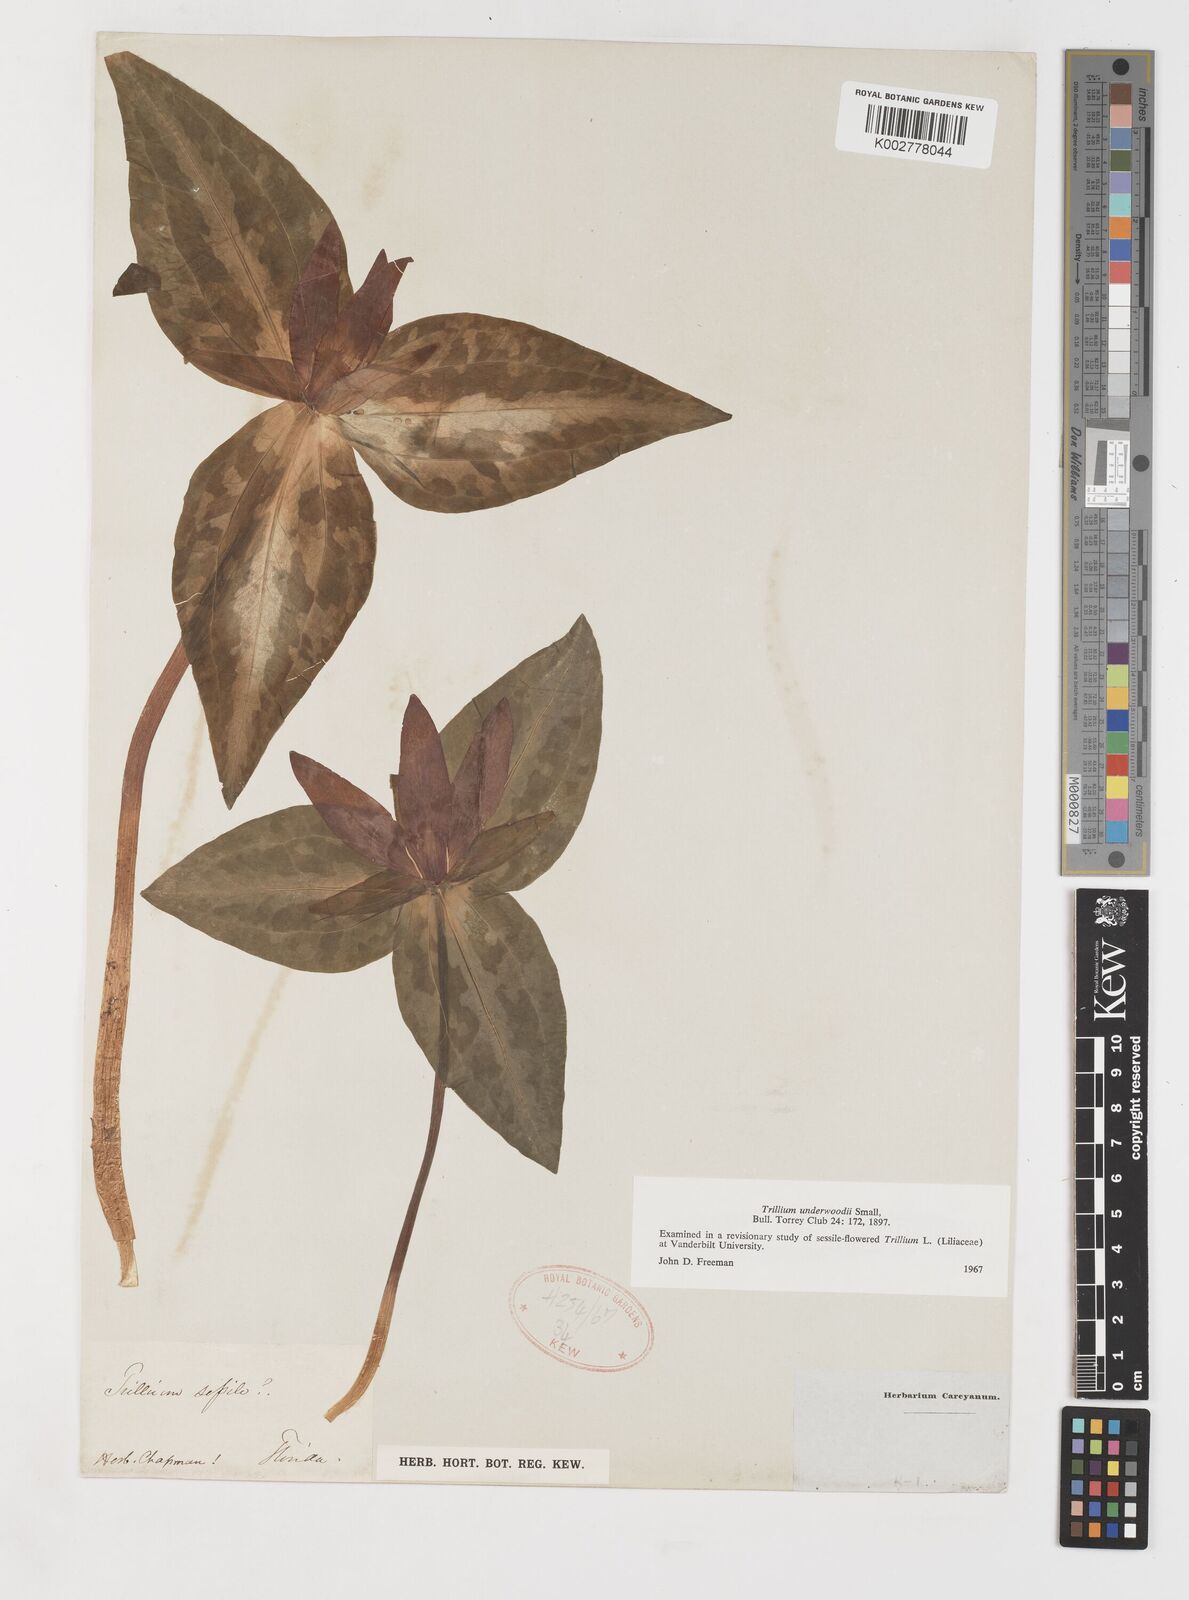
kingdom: Plantae
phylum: Tracheophyta
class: Liliopsida
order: Liliales
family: Melanthiaceae
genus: Trillium
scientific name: Trillium underwoodii
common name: Longbract wakerobin
